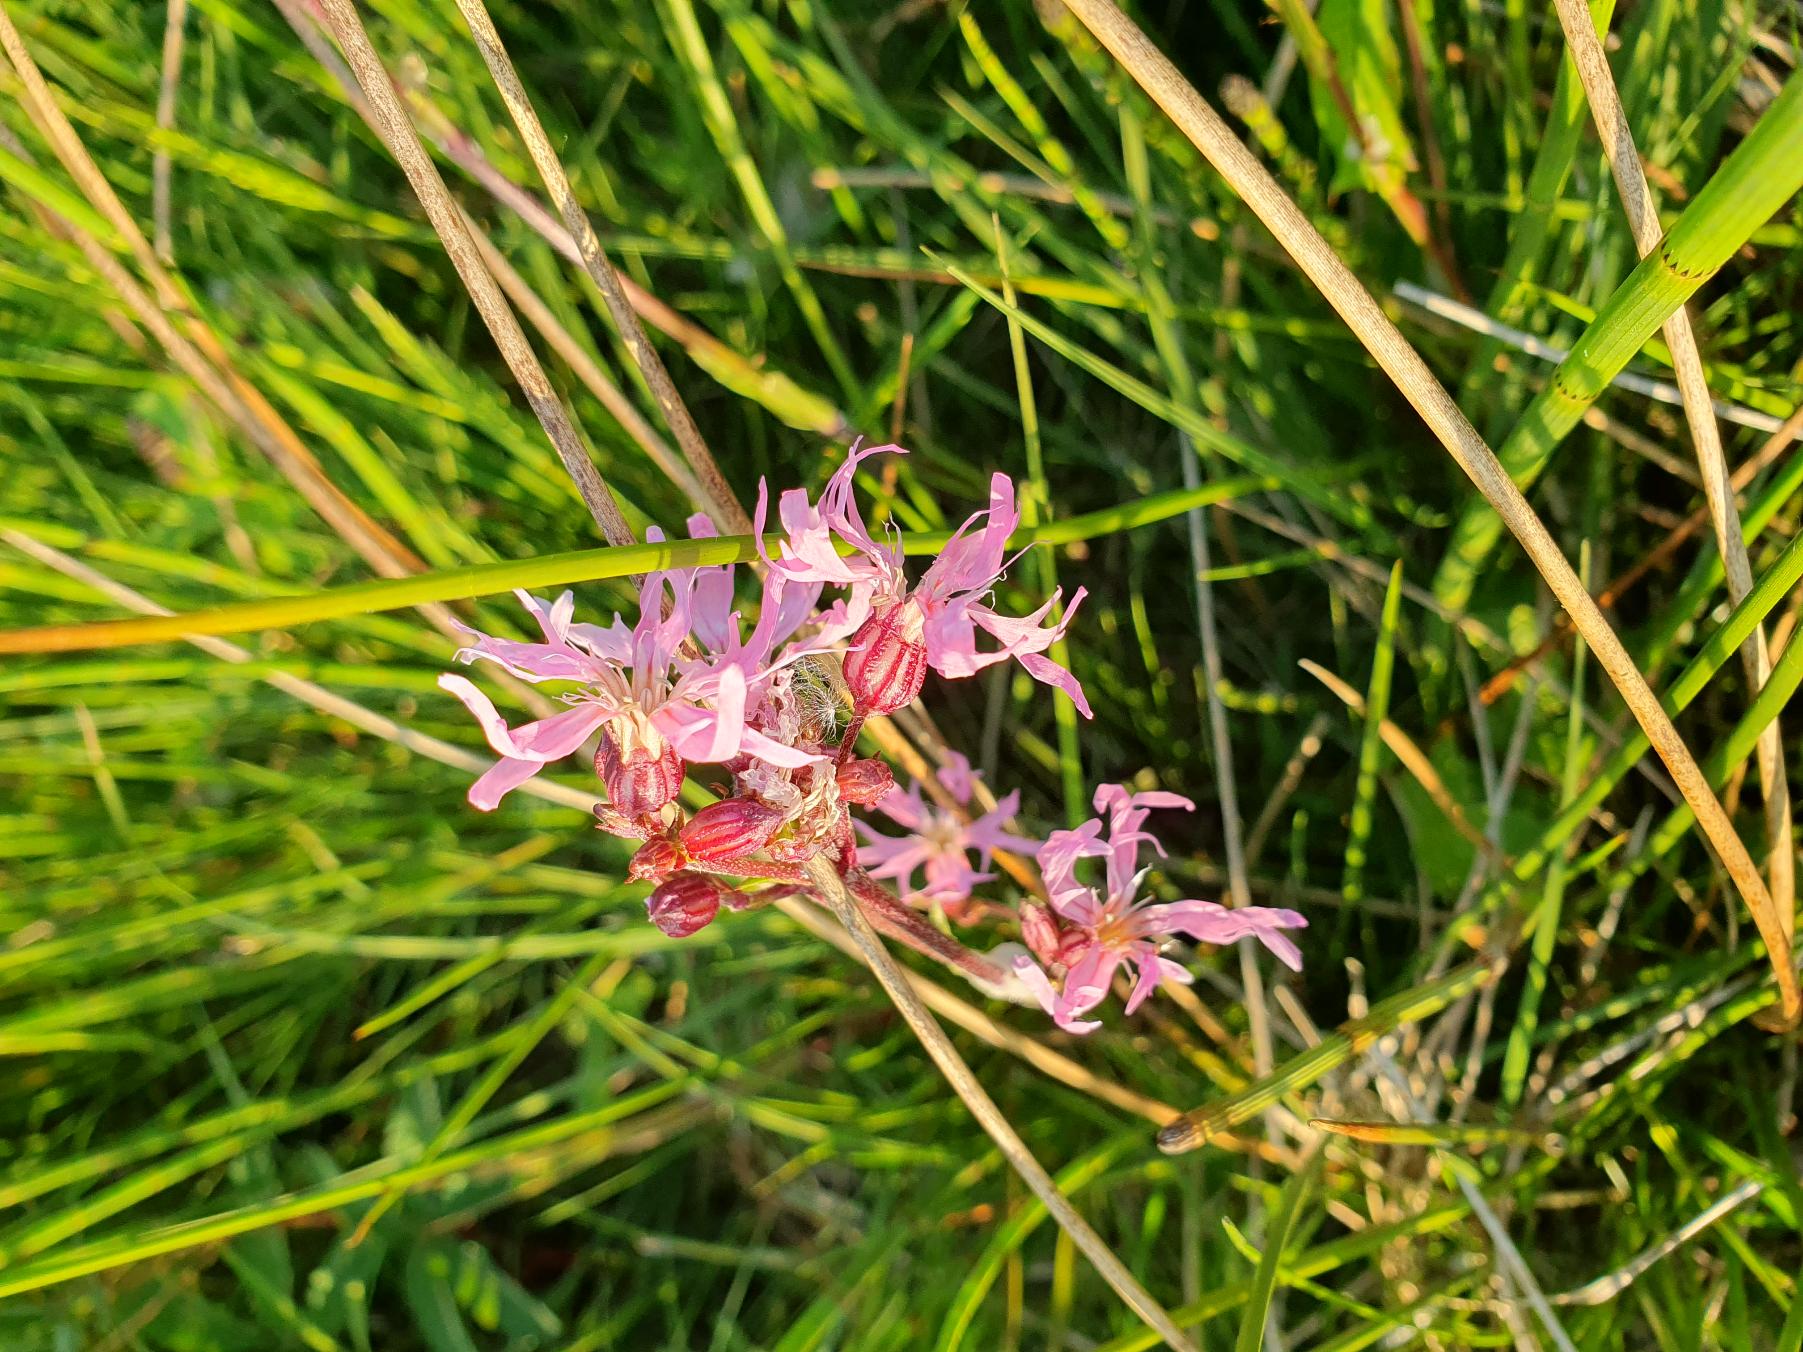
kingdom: Plantae
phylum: Tracheophyta
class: Magnoliopsida
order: Caryophyllales
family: Caryophyllaceae
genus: Silene
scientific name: Silene flos-cuculi
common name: Trævlekrone
